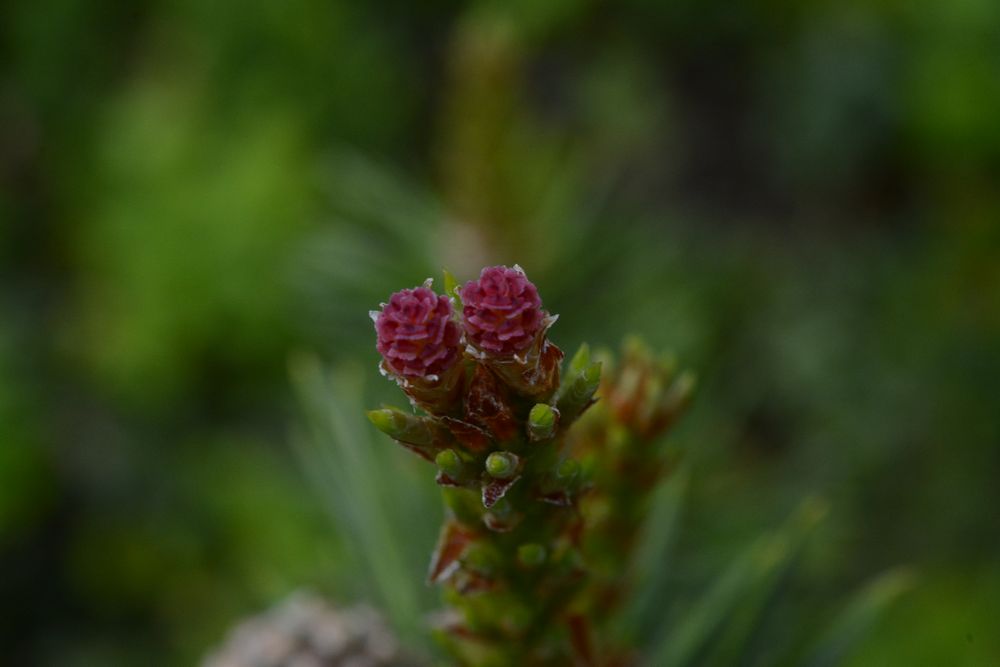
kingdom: Plantae
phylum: Tracheophyta
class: Pinopsida
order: Pinales
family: Pinaceae
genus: Pinus
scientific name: Pinus sylvestris
